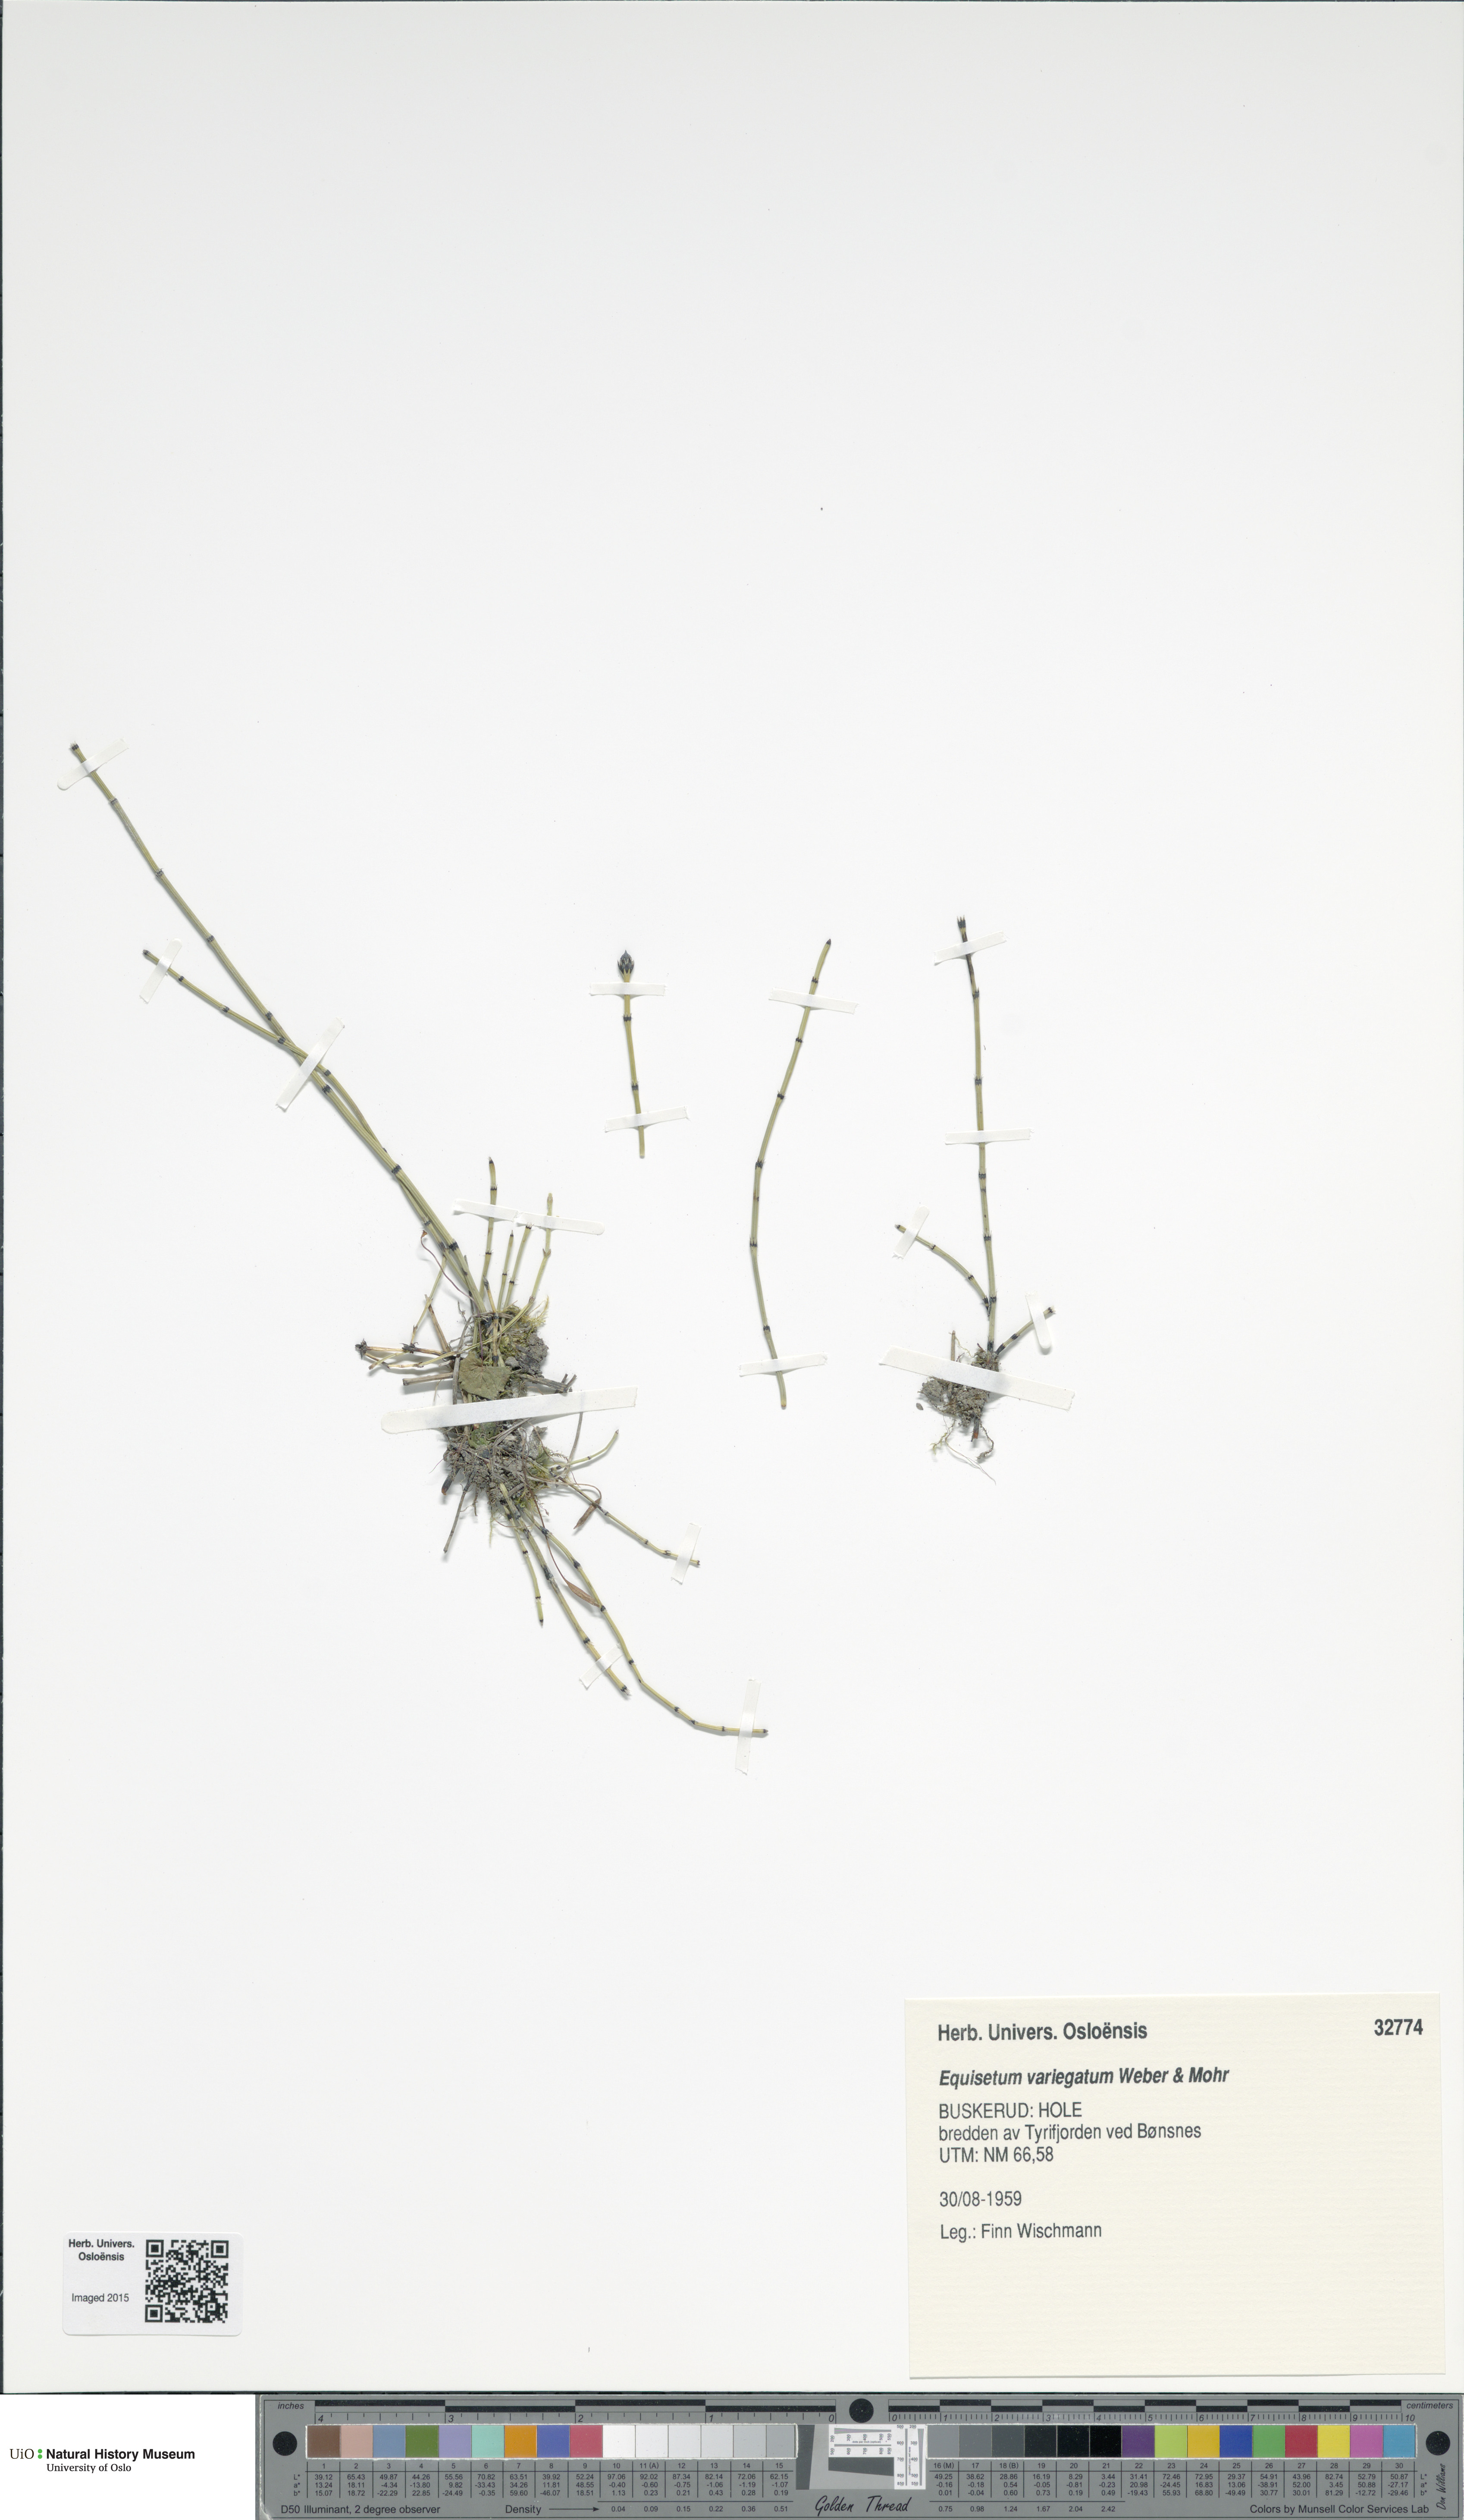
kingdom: Plantae
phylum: Tracheophyta
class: Polypodiopsida
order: Equisetales
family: Equisetaceae
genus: Equisetum
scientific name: Equisetum variegatum
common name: Variegated horsetail
